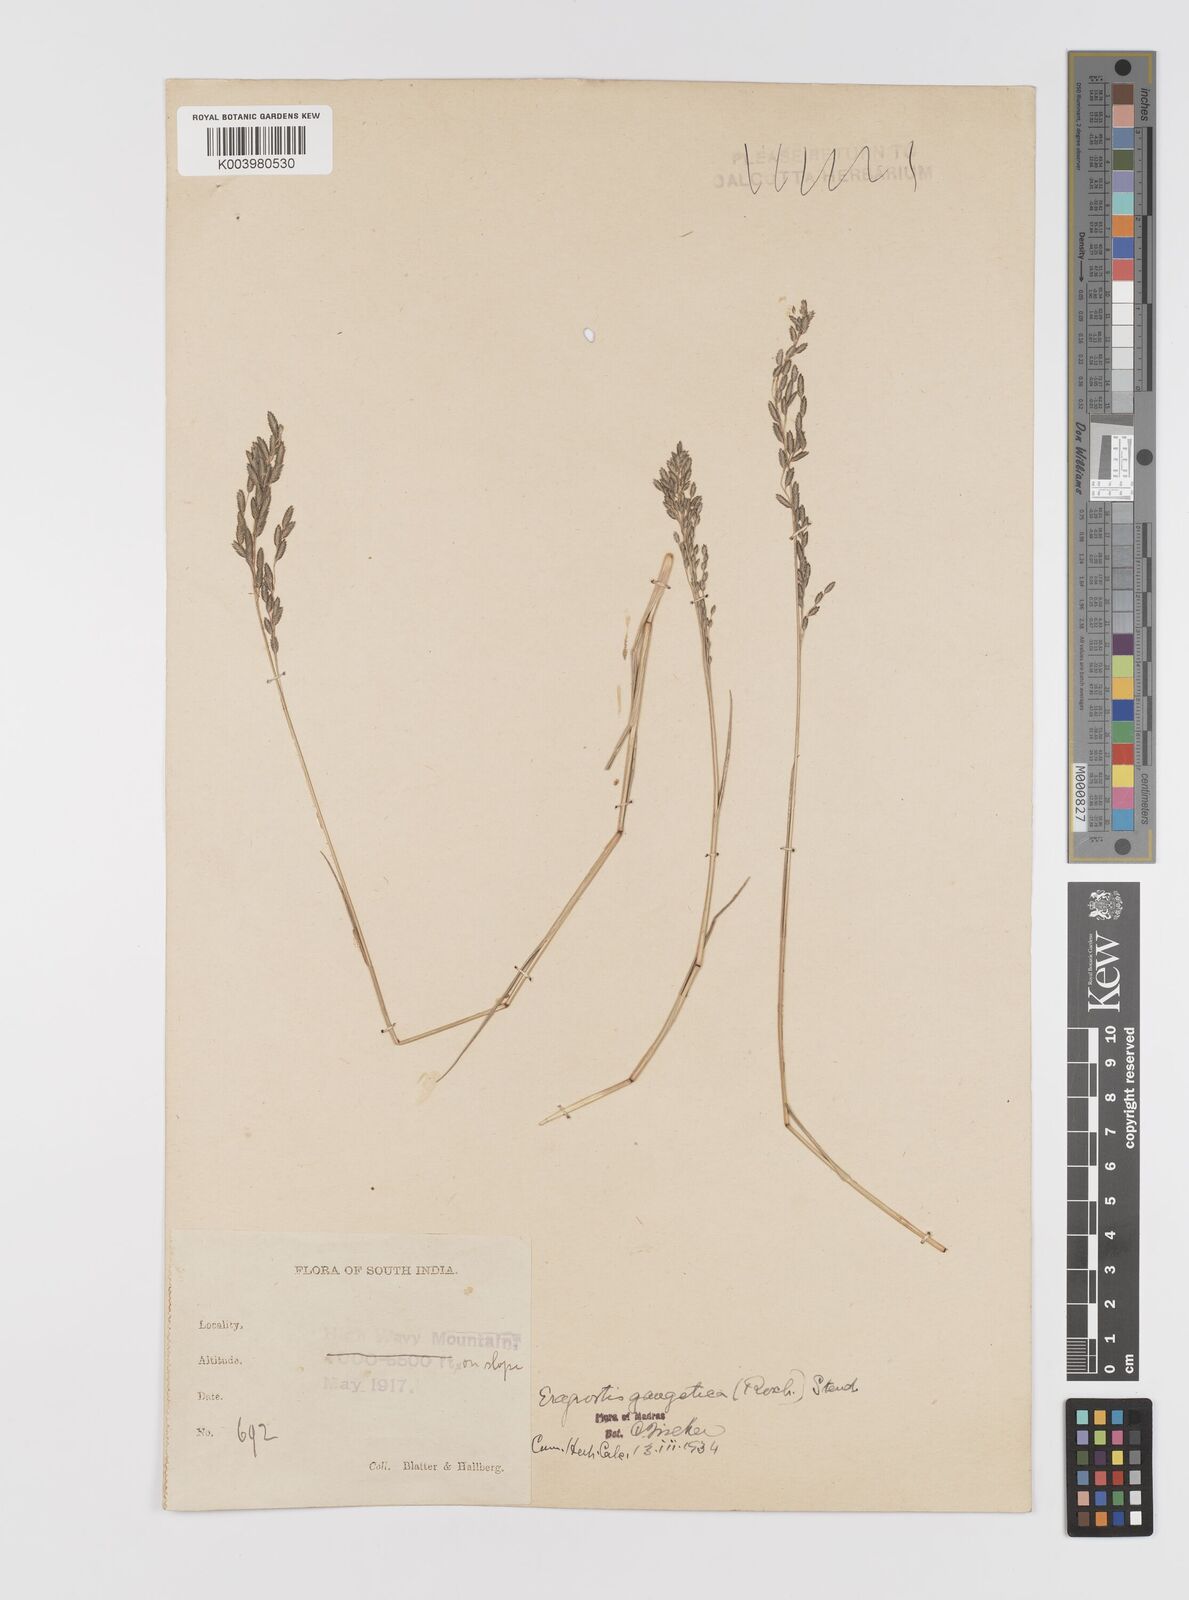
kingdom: Plantae
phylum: Tracheophyta
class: Liliopsida
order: Poales
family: Poaceae
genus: Eragrostis
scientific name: Eragrostis
